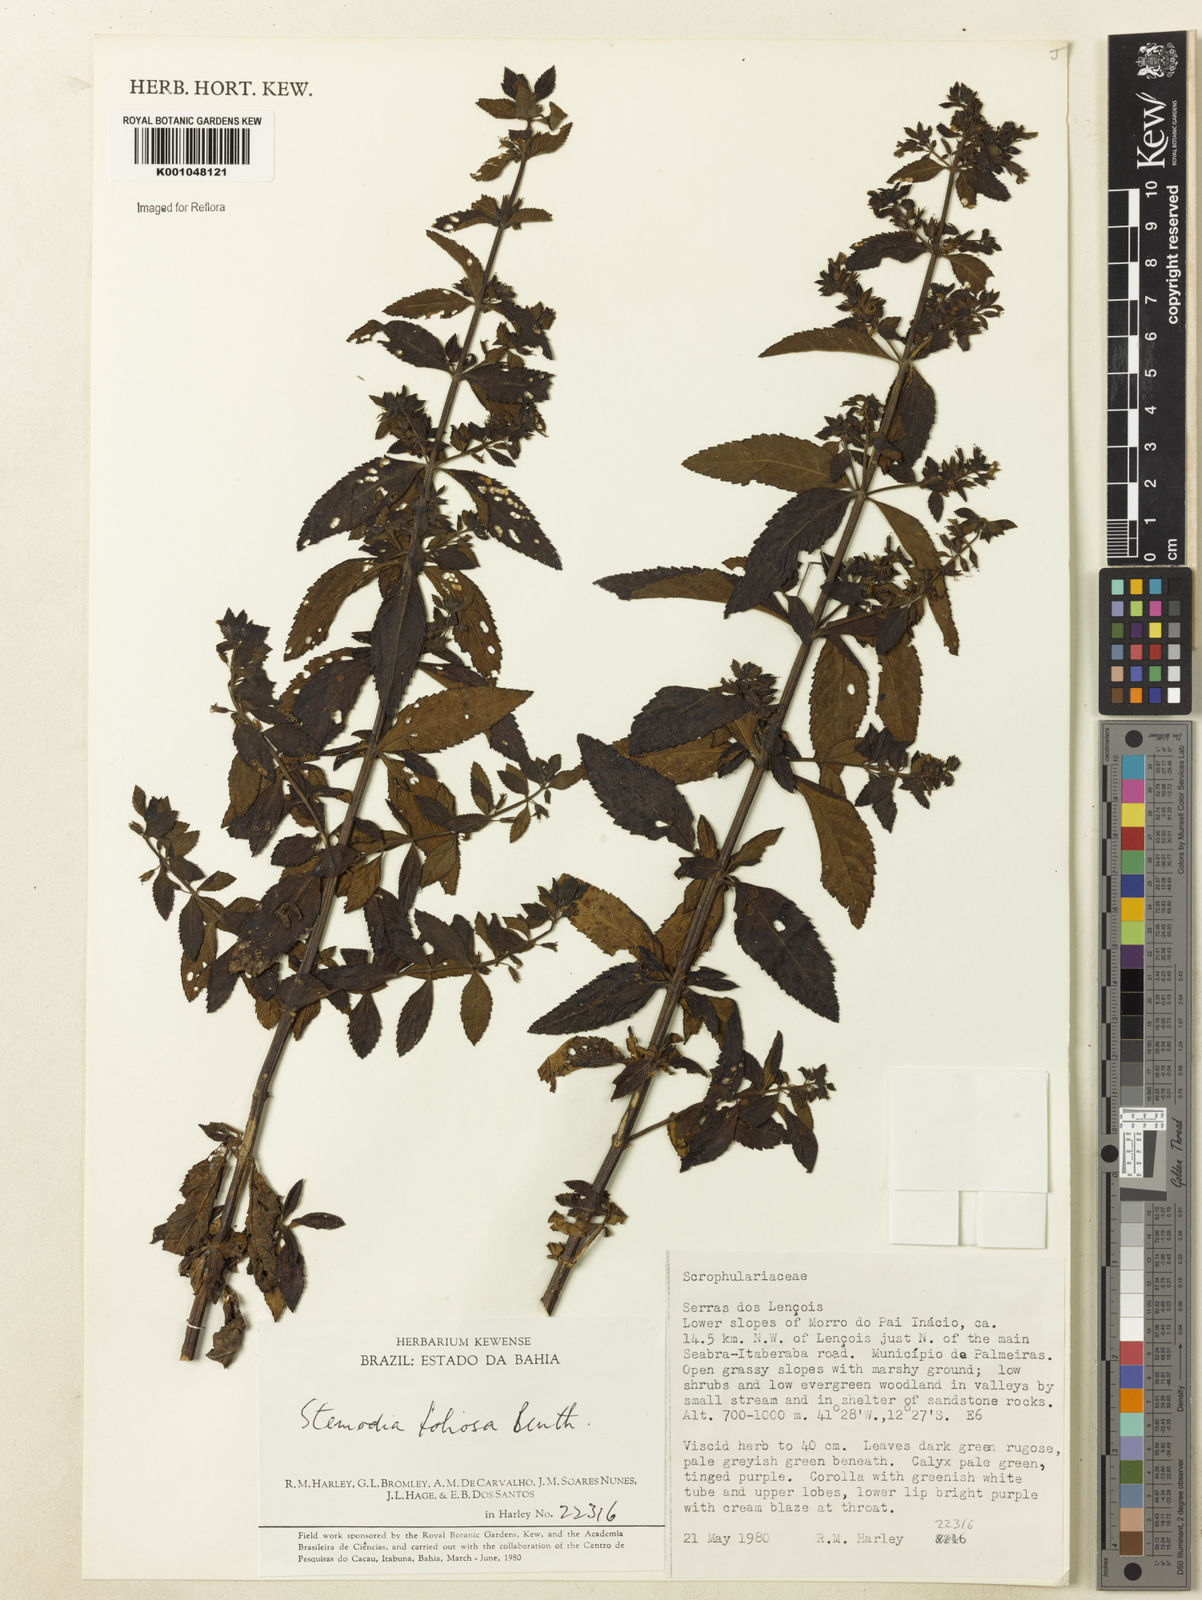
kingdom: Plantae
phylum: Tracheophyta
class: Magnoliopsida
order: Lamiales
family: Plantaginaceae
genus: Stemodia
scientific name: Stemodia foliosa
